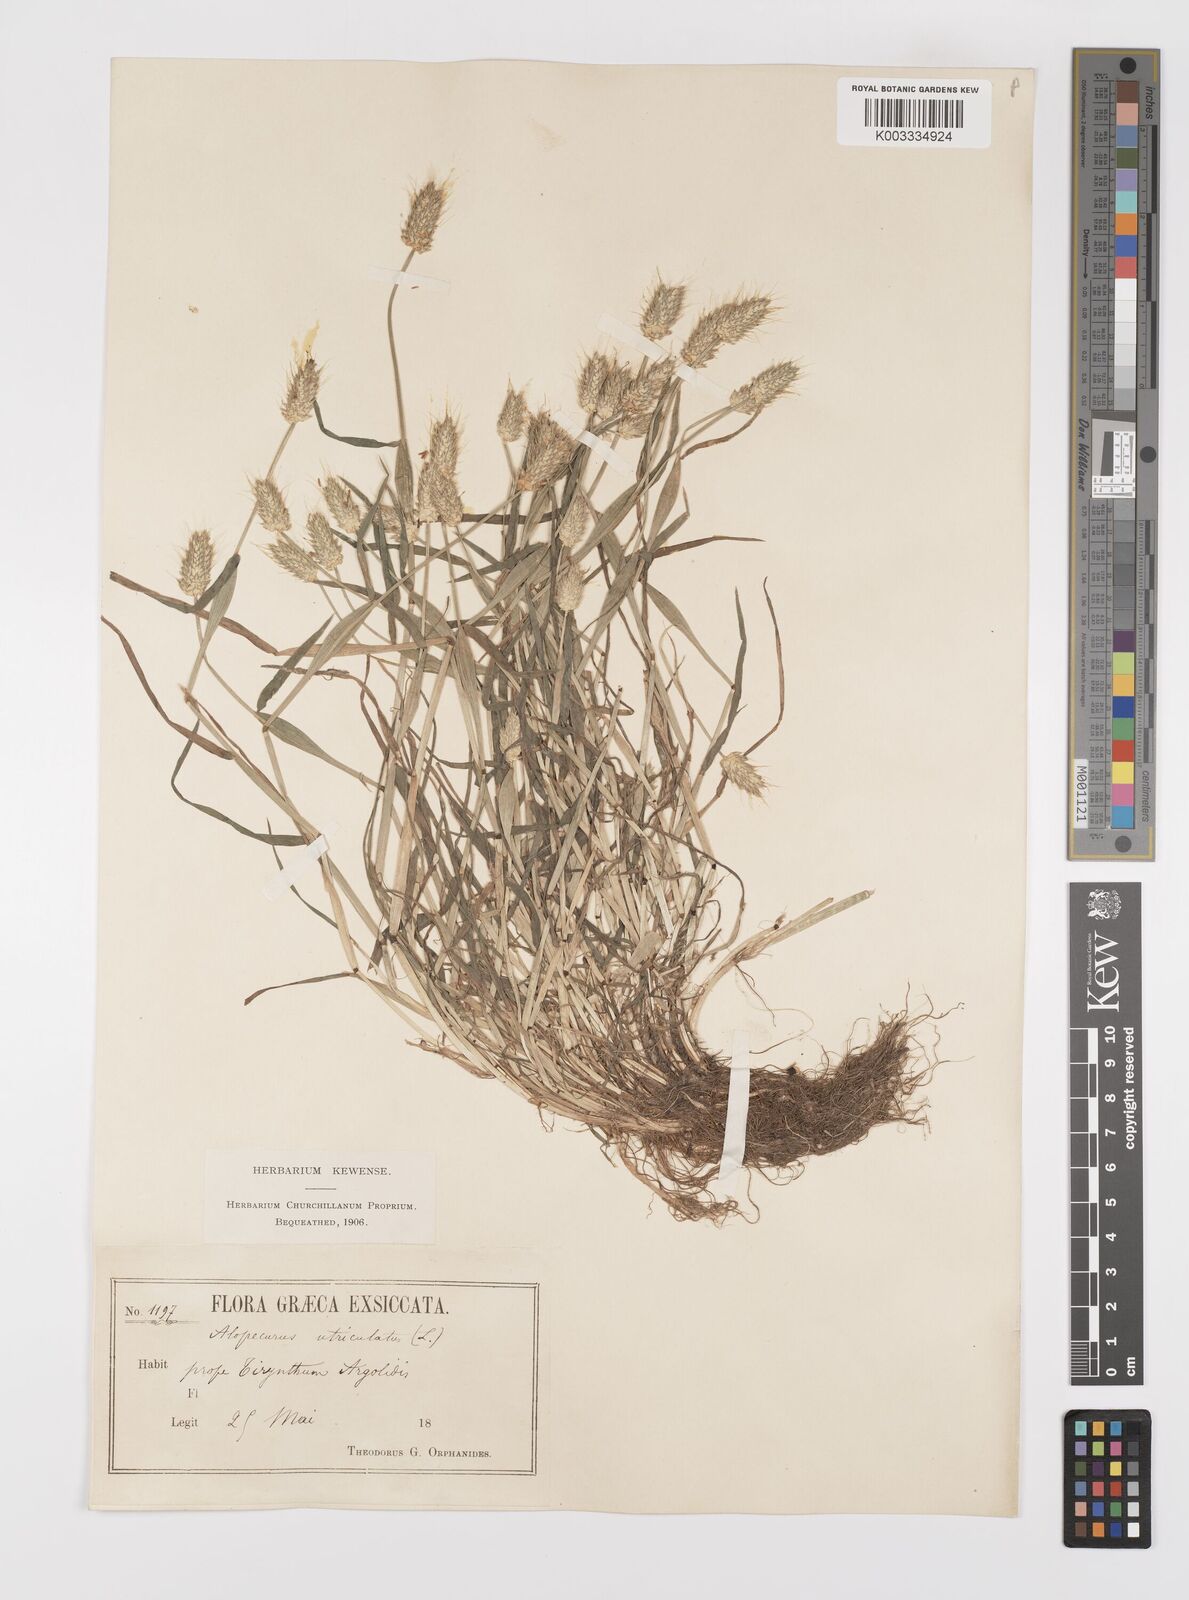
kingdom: Plantae
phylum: Tracheophyta
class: Liliopsida
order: Poales
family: Poaceae
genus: Alopecurus
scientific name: Alopecurus rendlei
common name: Rendle's meadow foxtail
